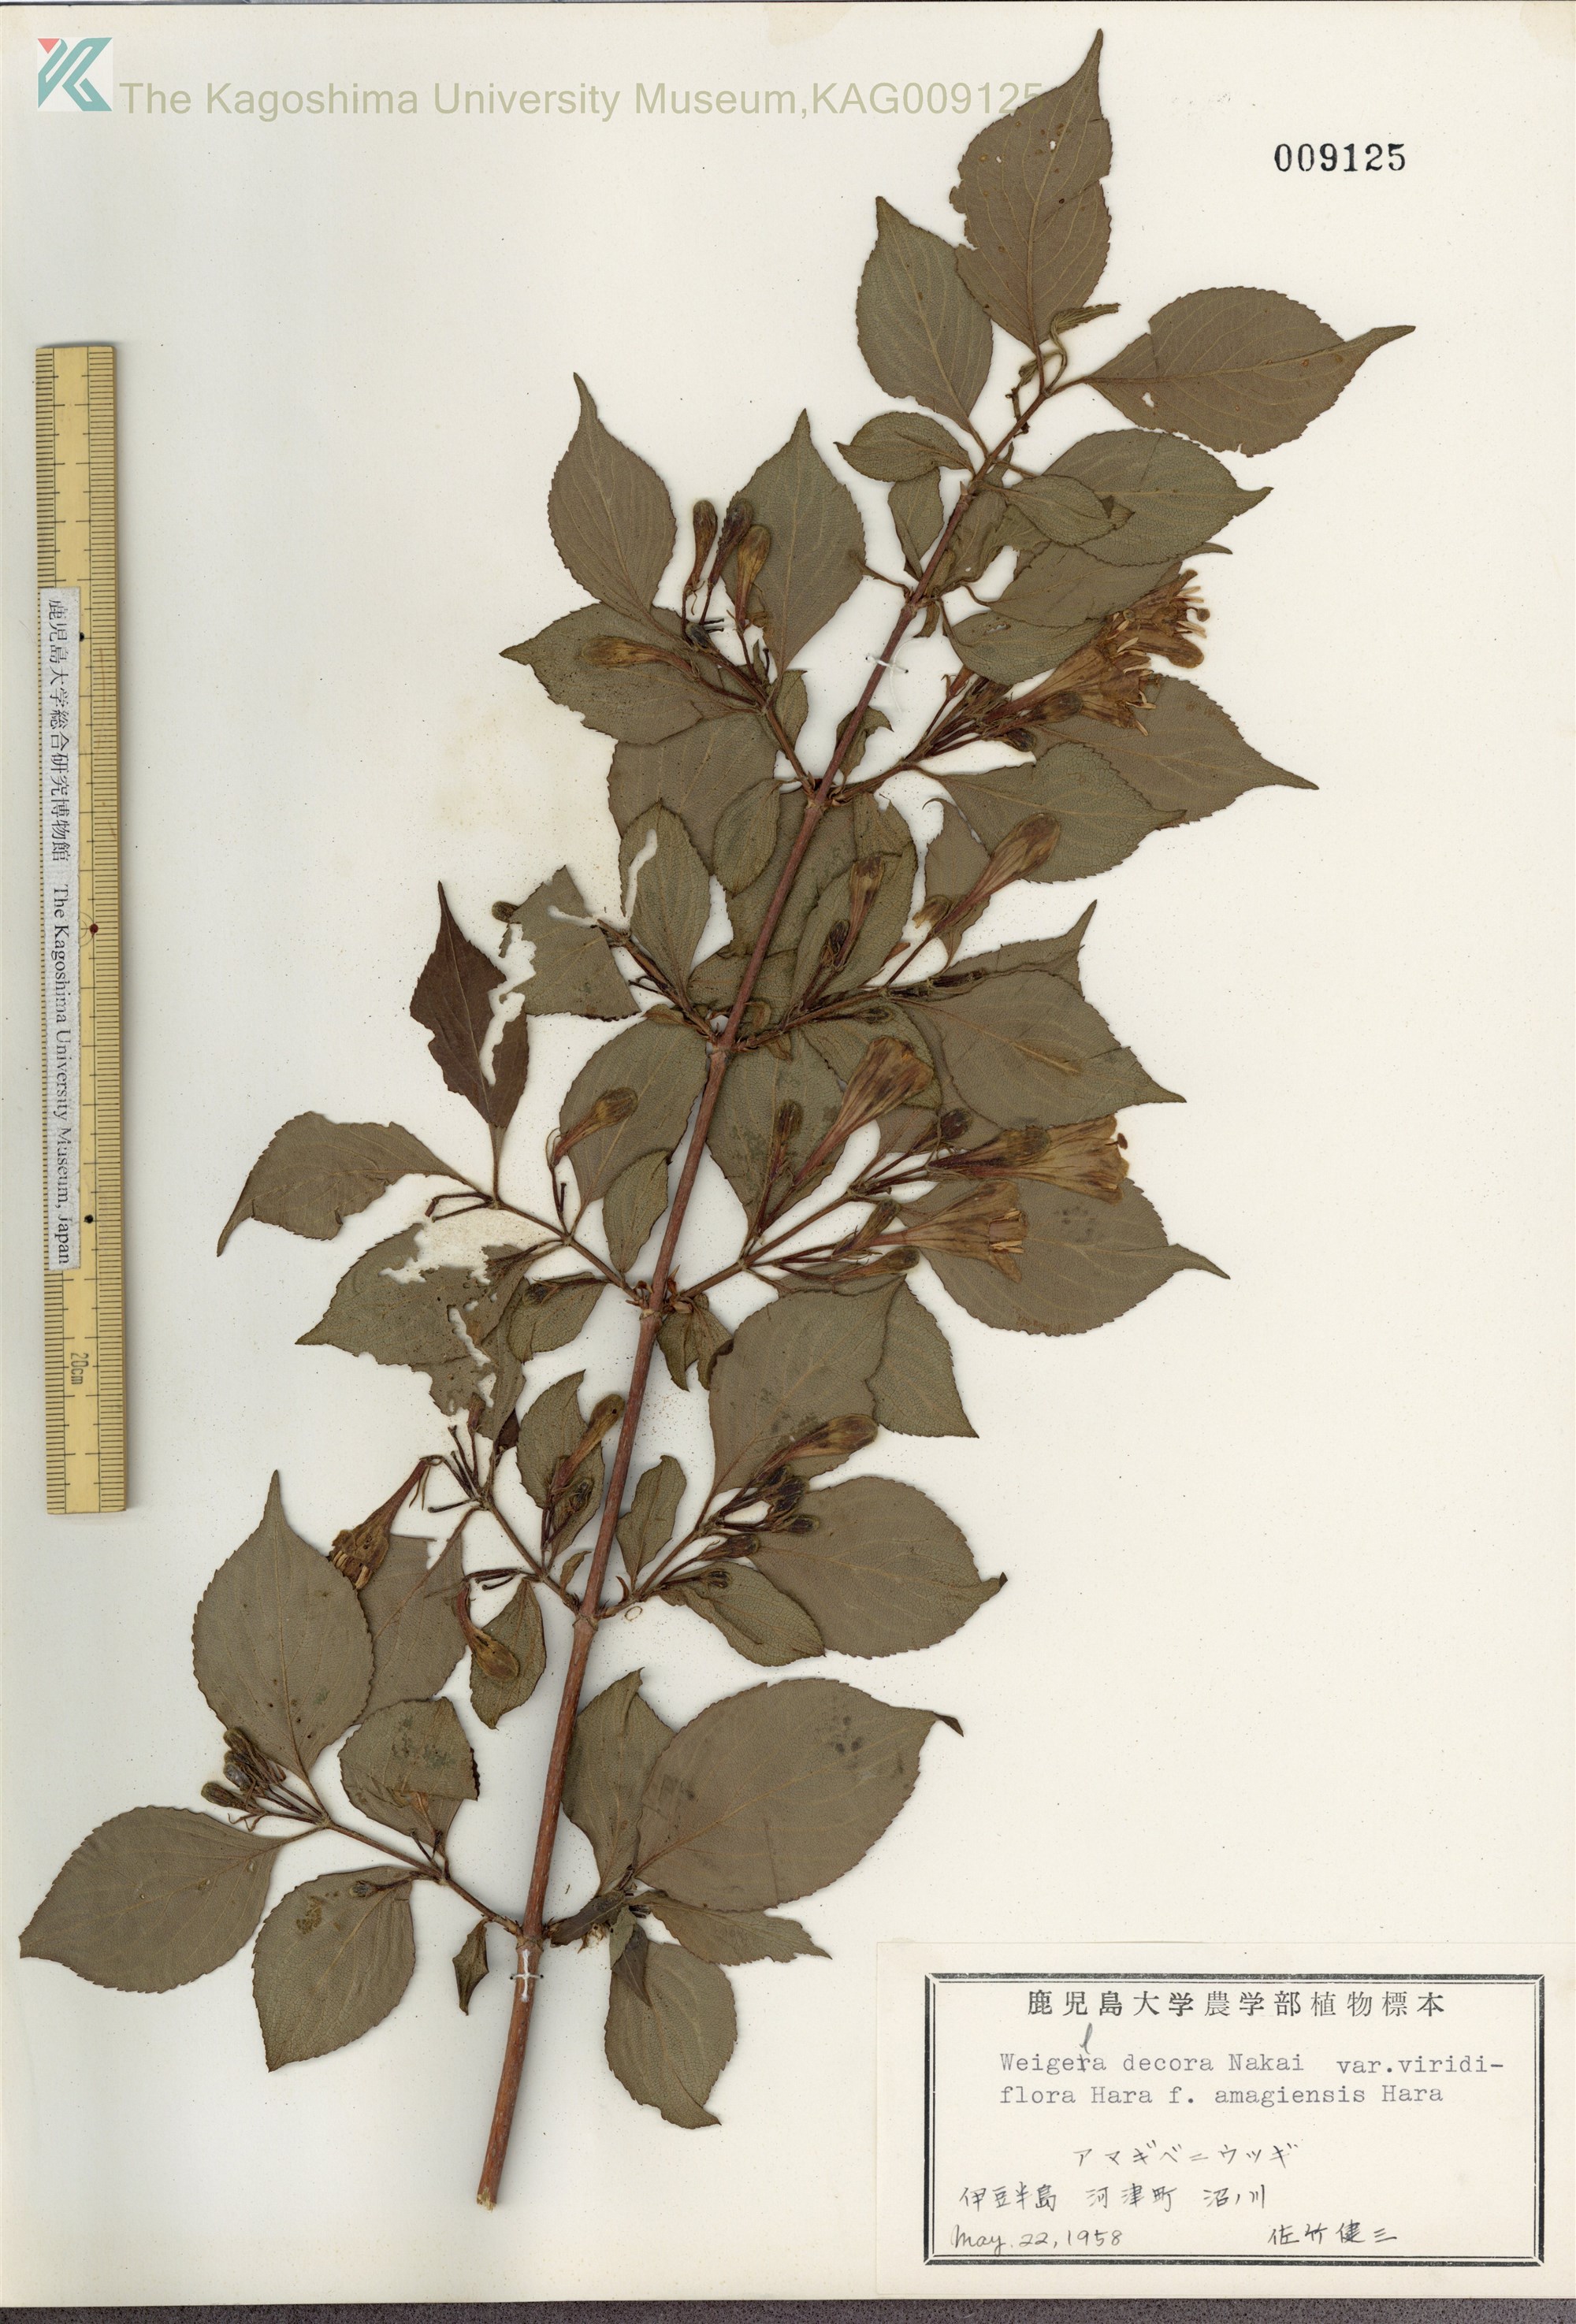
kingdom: Plantae
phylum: Tracheophyta
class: Magnoliopsida
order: Dipsacales
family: Caprifoliaceae
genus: Weigela
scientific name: Weigela decora
